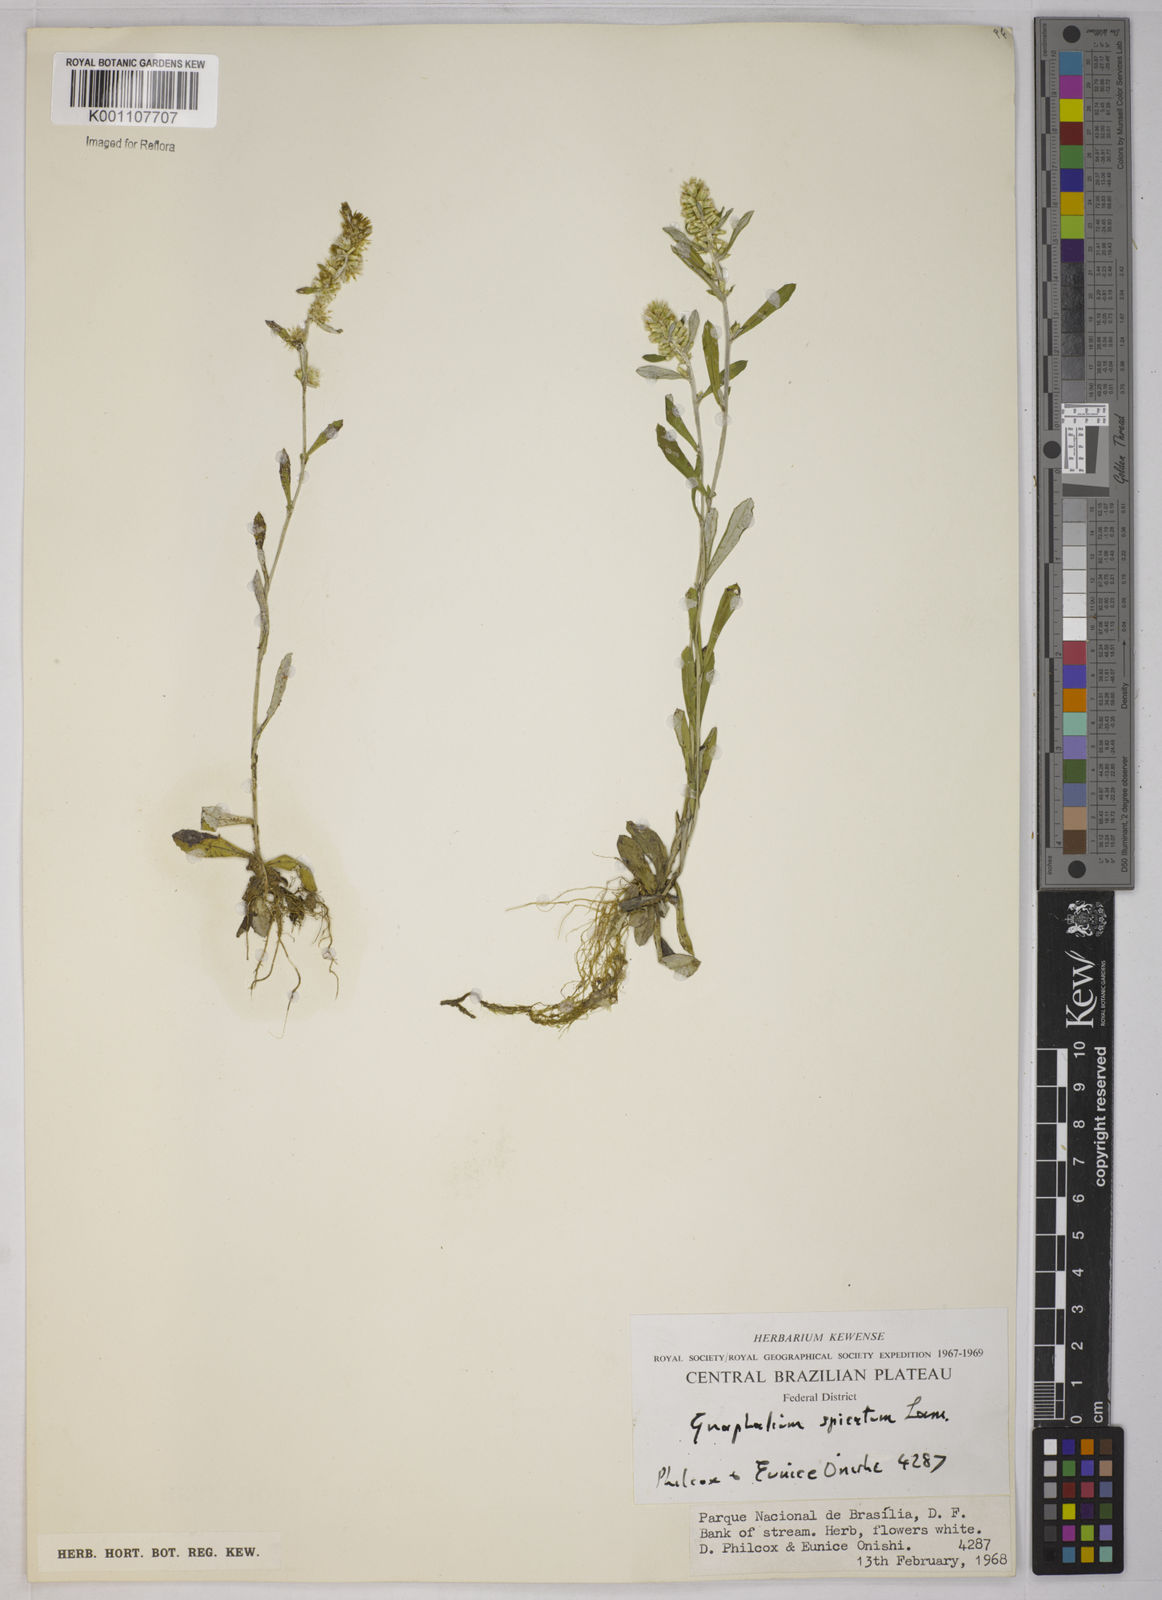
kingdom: Plantae
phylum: Tracheophyta
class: Magnoliopsida
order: Asterales
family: Asteraceae
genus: Pterocaulon
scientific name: Pterocaulon virgatum
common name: Wand blackroot
